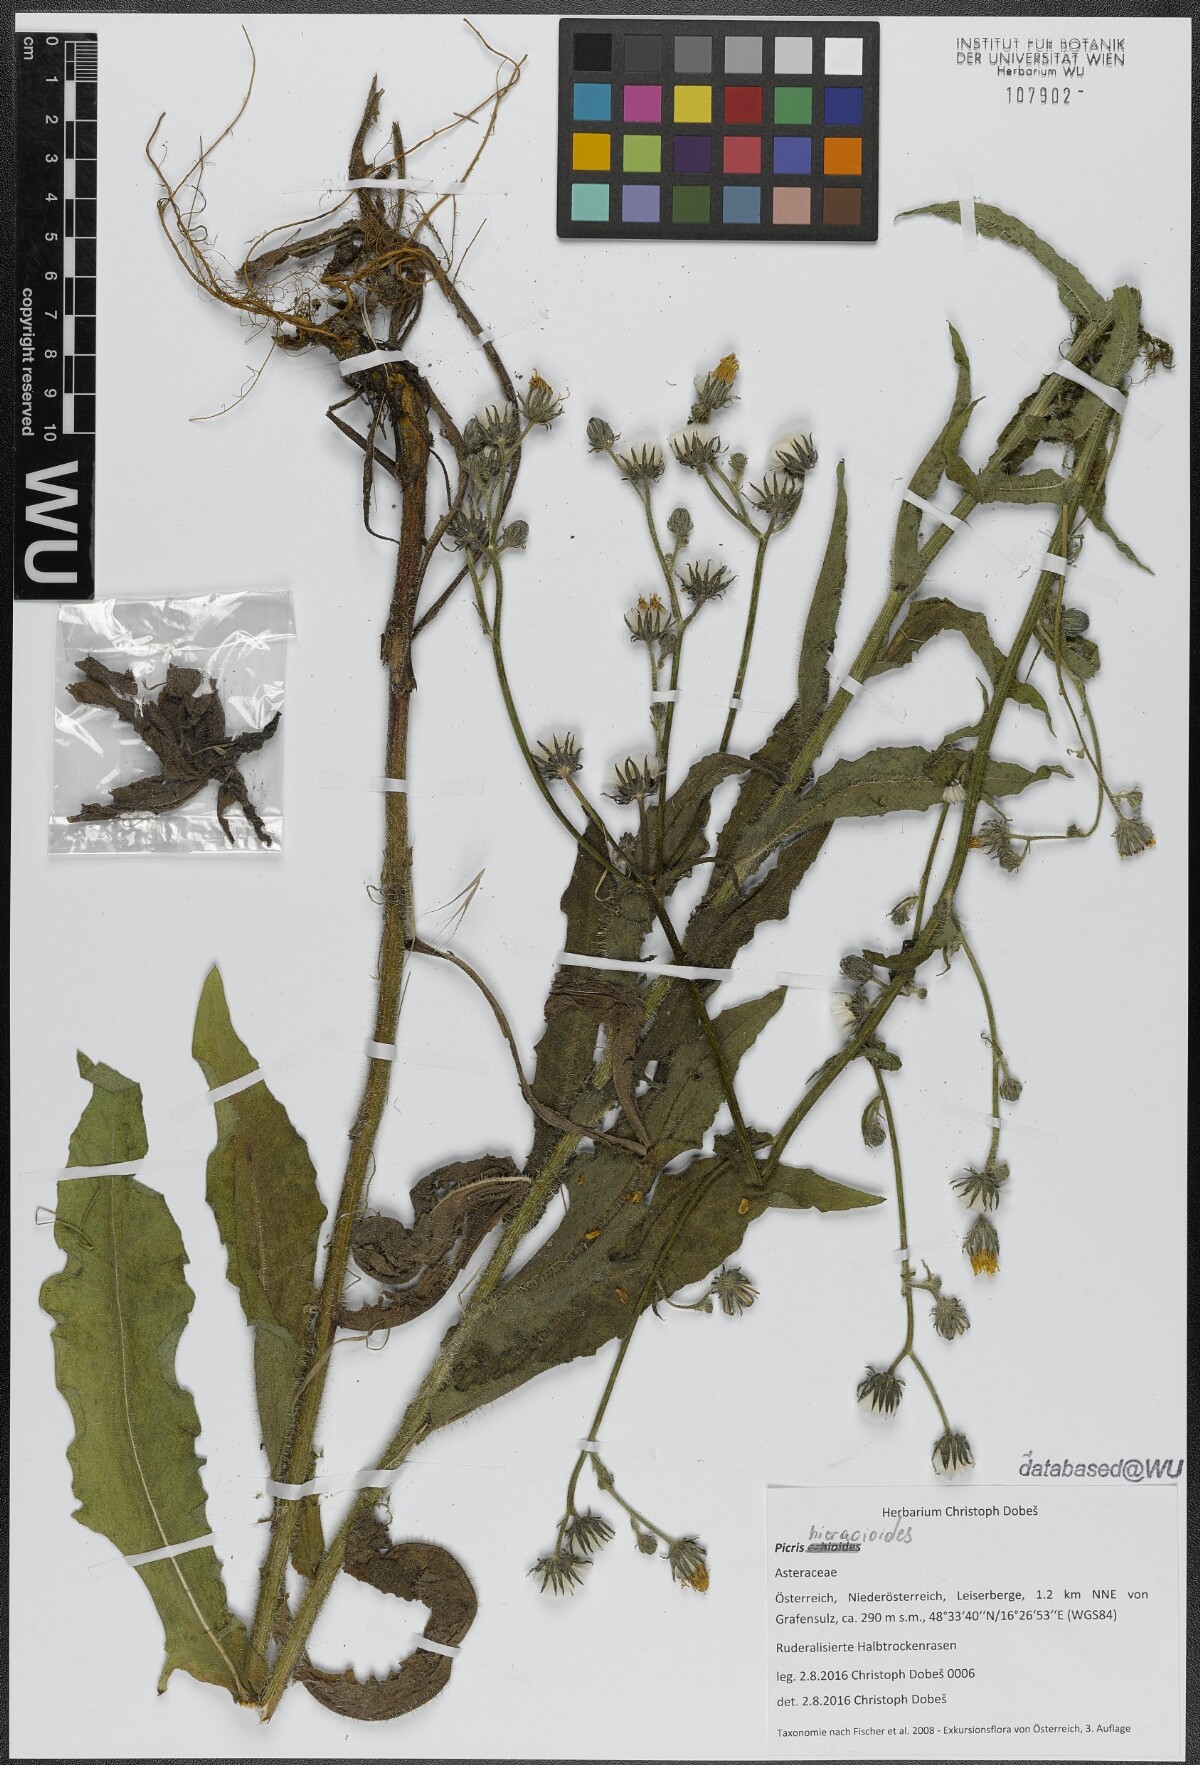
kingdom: Plantae
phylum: Tracheophyta
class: Magnoliopsida
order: Asterales
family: Asteraceae
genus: Picris
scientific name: Picris hieracioides
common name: Hawkweed oxtongue
